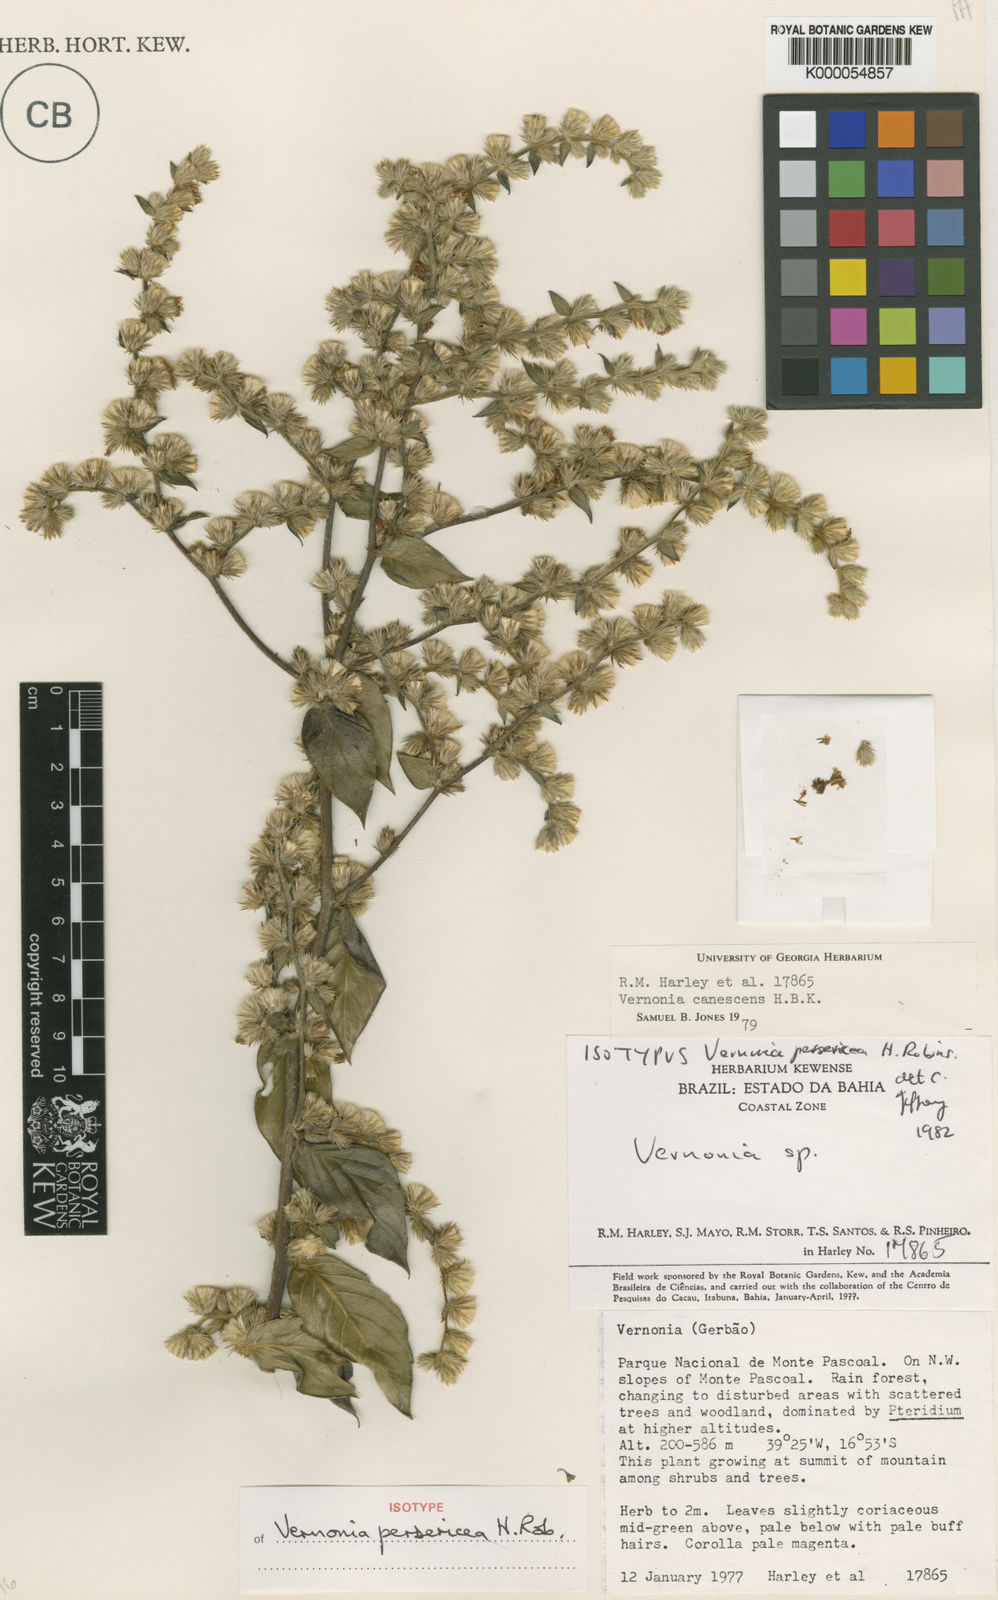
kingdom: Plantae
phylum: Tracheophyta
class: Magnoliopsida
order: Asterales
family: Asteraceae
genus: Lepidaploa
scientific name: Lepidaploa persericea
